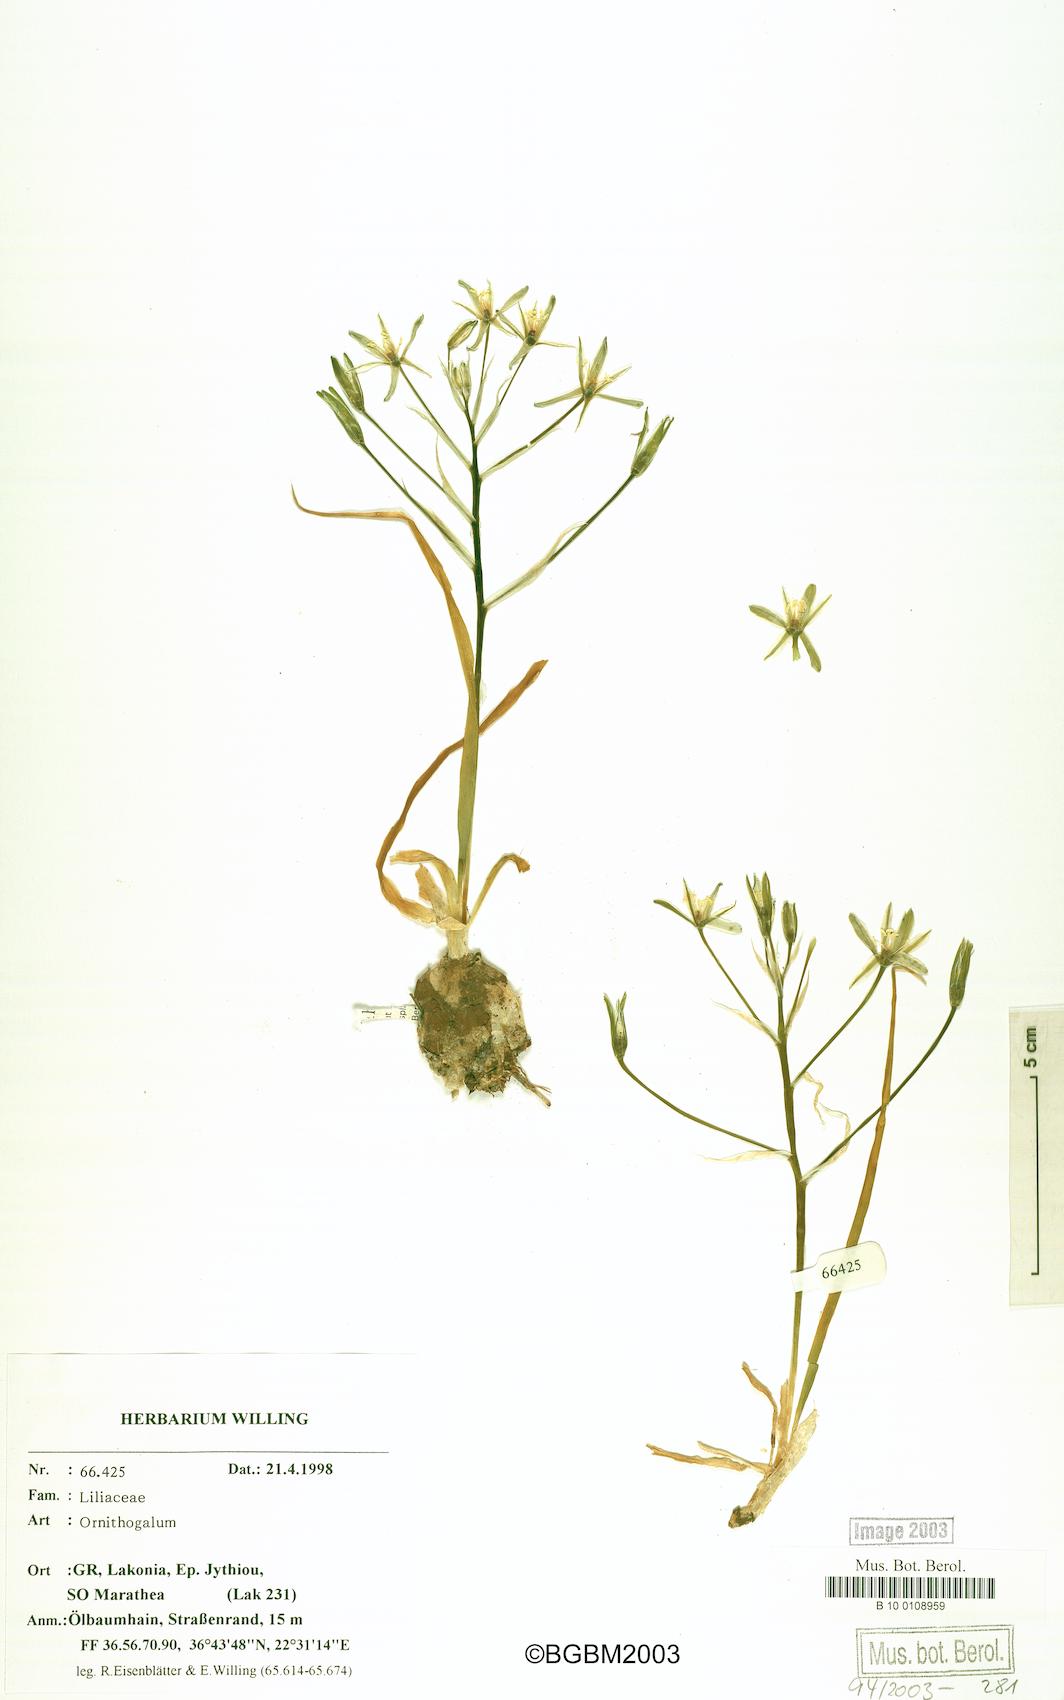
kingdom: Plantae
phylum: Tracheophyta
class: Liliopsida
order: Asparagales
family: Asparagaceae
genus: Ornithogalum
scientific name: Ornithogalum
